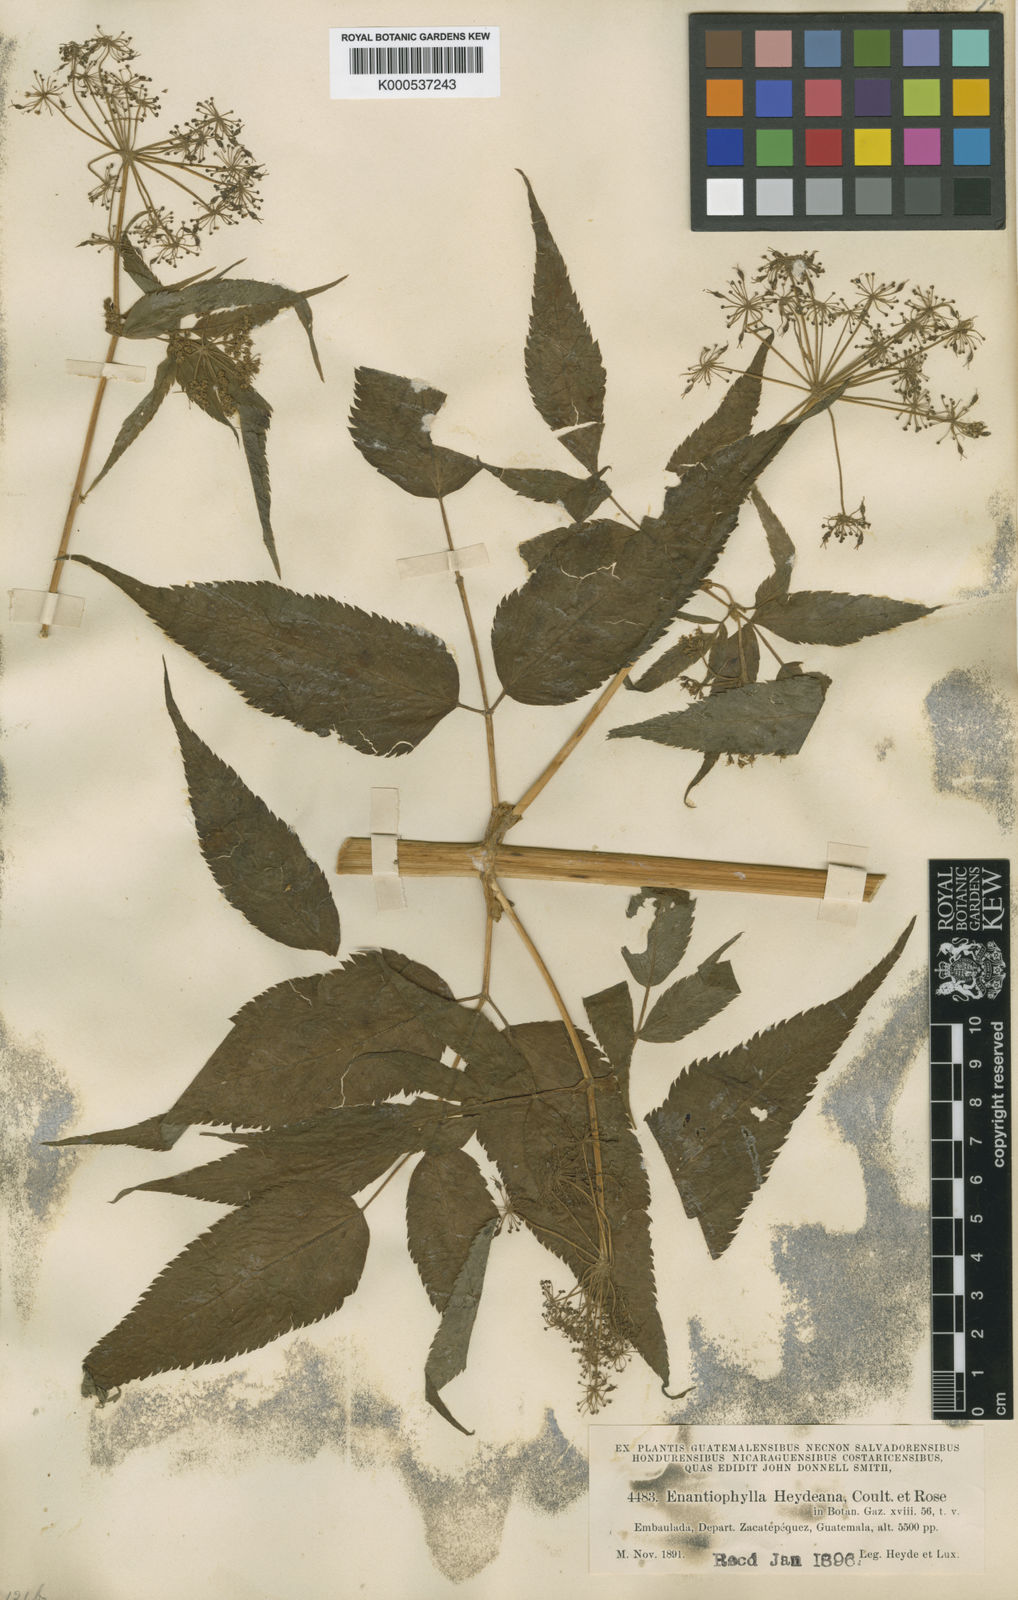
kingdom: Plantae
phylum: Tracheophyta
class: Magnoliopsida
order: Apiales
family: Apiaceae
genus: Enantiophylla
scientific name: Enantiophylla heydeana
